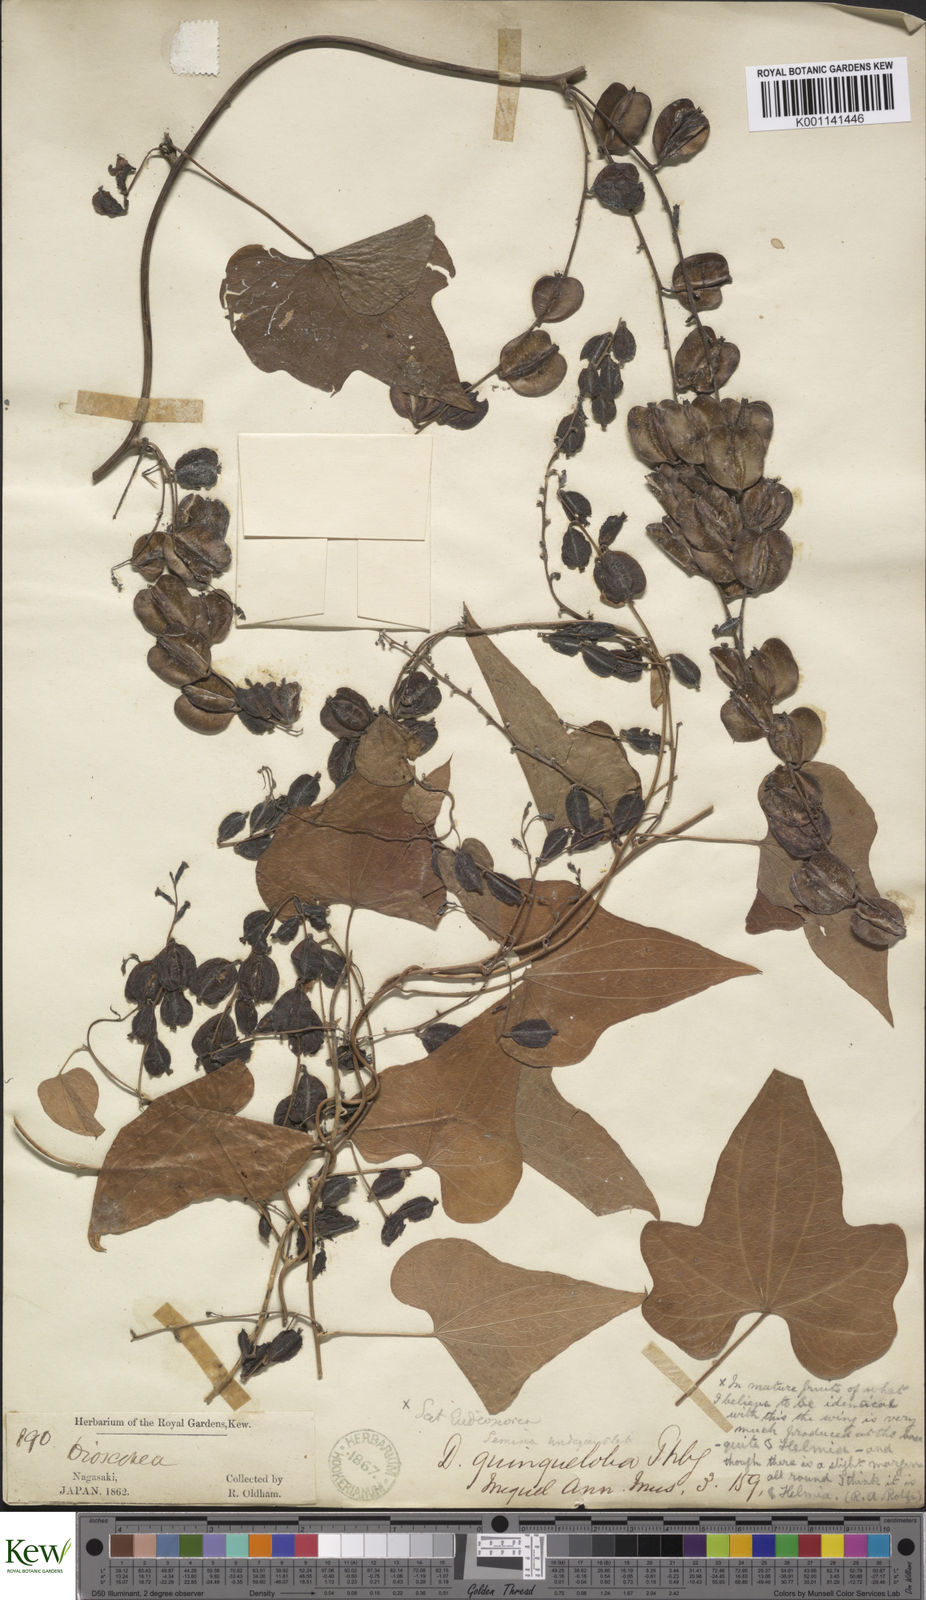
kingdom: Plantae
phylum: Tracheophyta
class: Liliopsida
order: Dioscoreales
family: Dioscoreaceae
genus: Dioscorea
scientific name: Dioscorea quinquelobata
